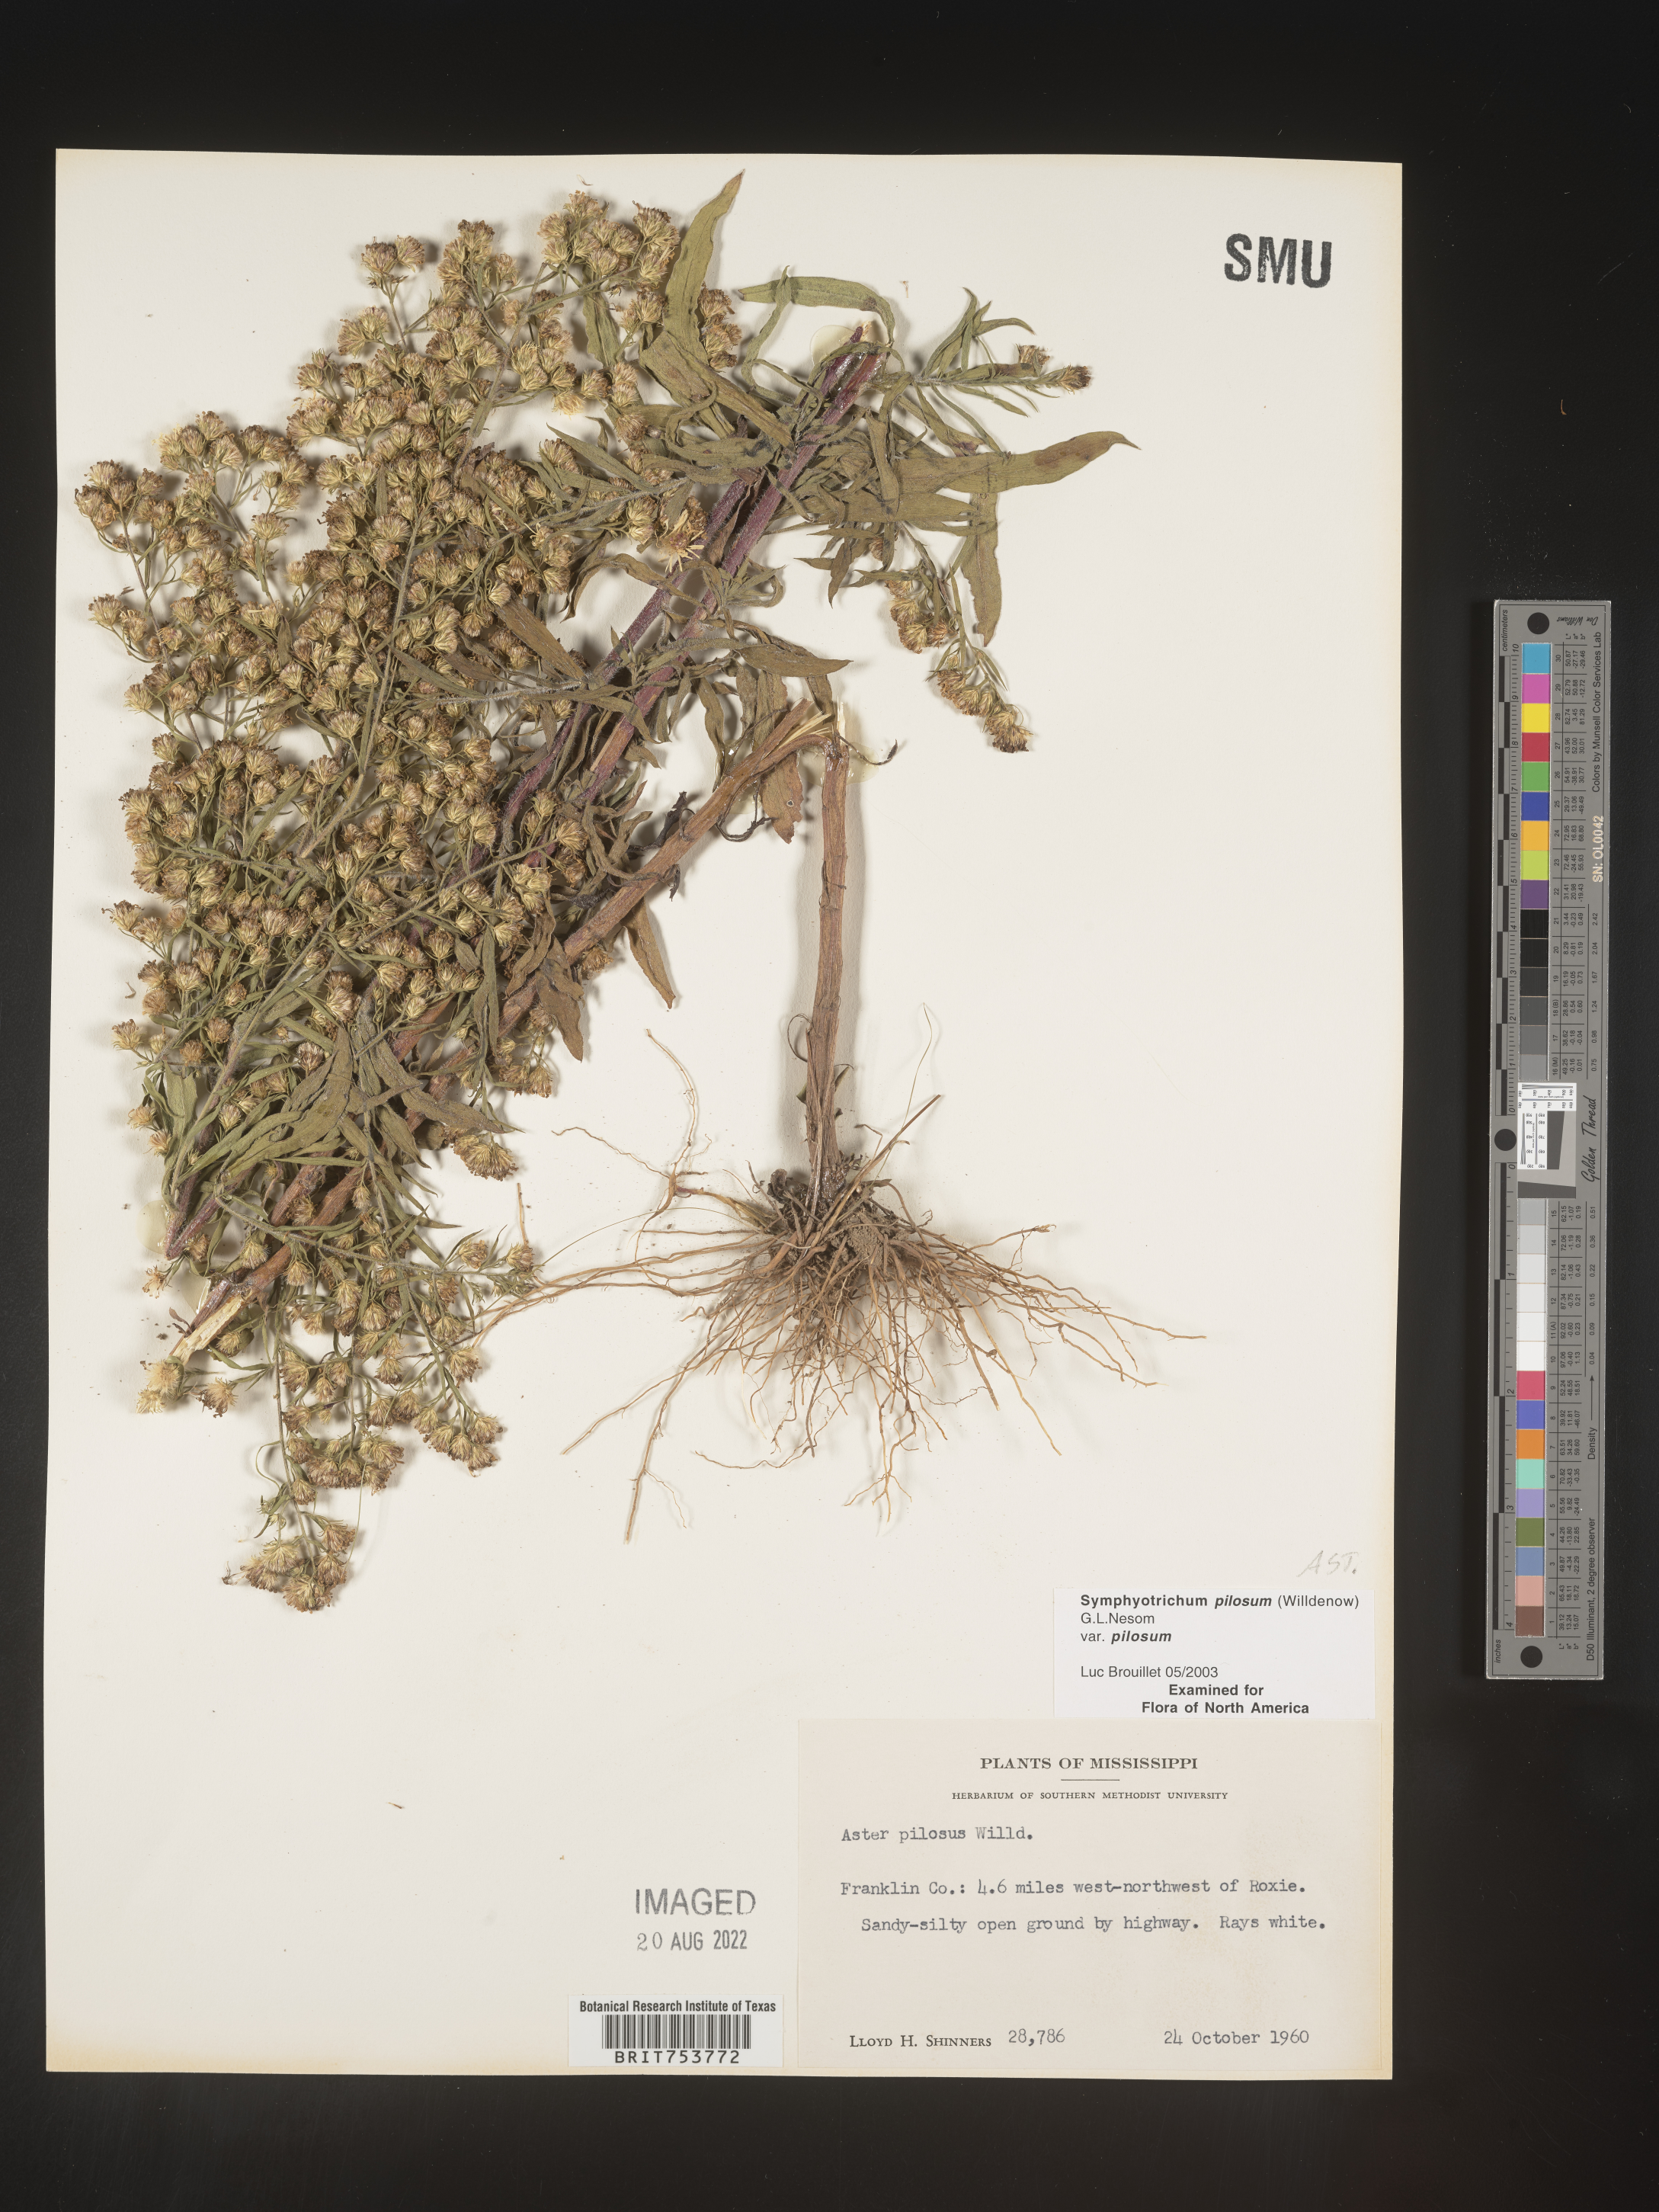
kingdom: Plantae
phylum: Tracheophyta
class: Magnoliopsida
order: Asterales
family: Asteraceae
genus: Symphyotrichum
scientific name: Symphyotrichum pilosum
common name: Awl aster
